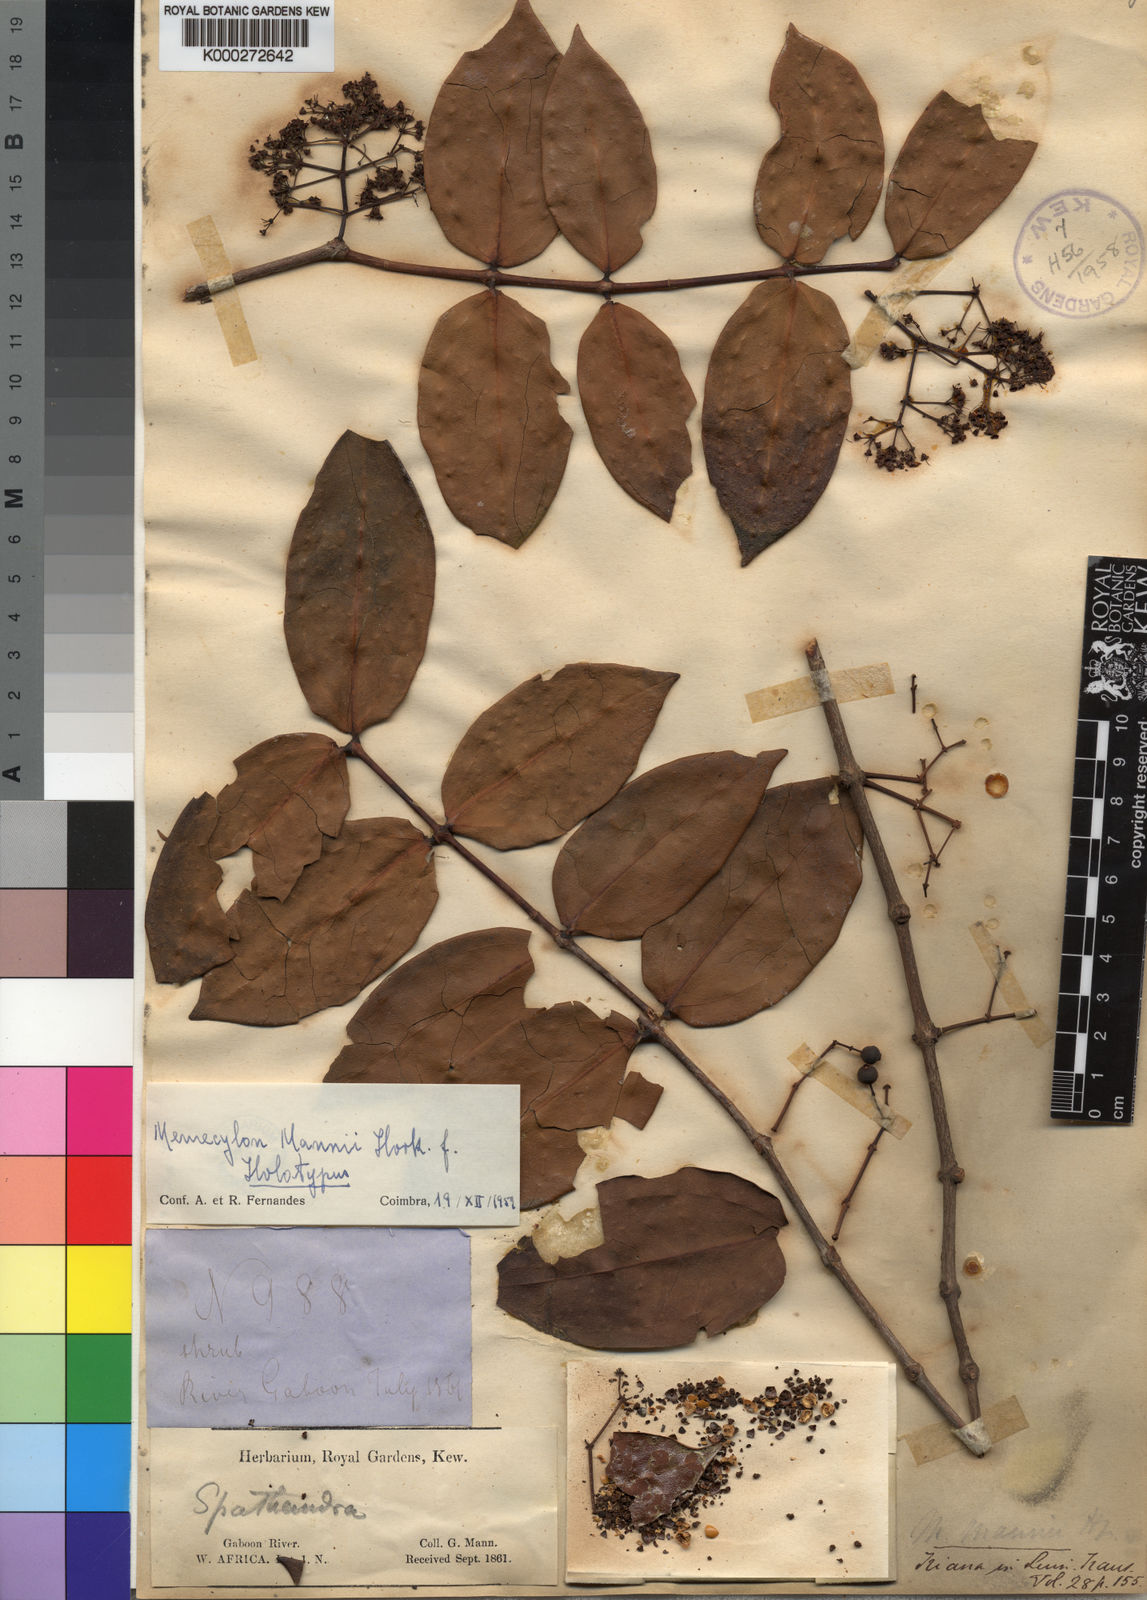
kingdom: Plantae
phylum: Tracheophyta
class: Magnoliopsida
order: Myrtales
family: Melastomataceae
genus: Spathandra
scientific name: Spathandra
